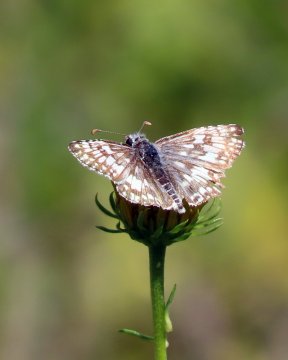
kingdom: Animalia
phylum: Arthropoda
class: Insecta
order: Lepidoptera
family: Hesperiidae
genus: Pyrgus
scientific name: Pyrgus communis
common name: Common Checkered-Skipper
